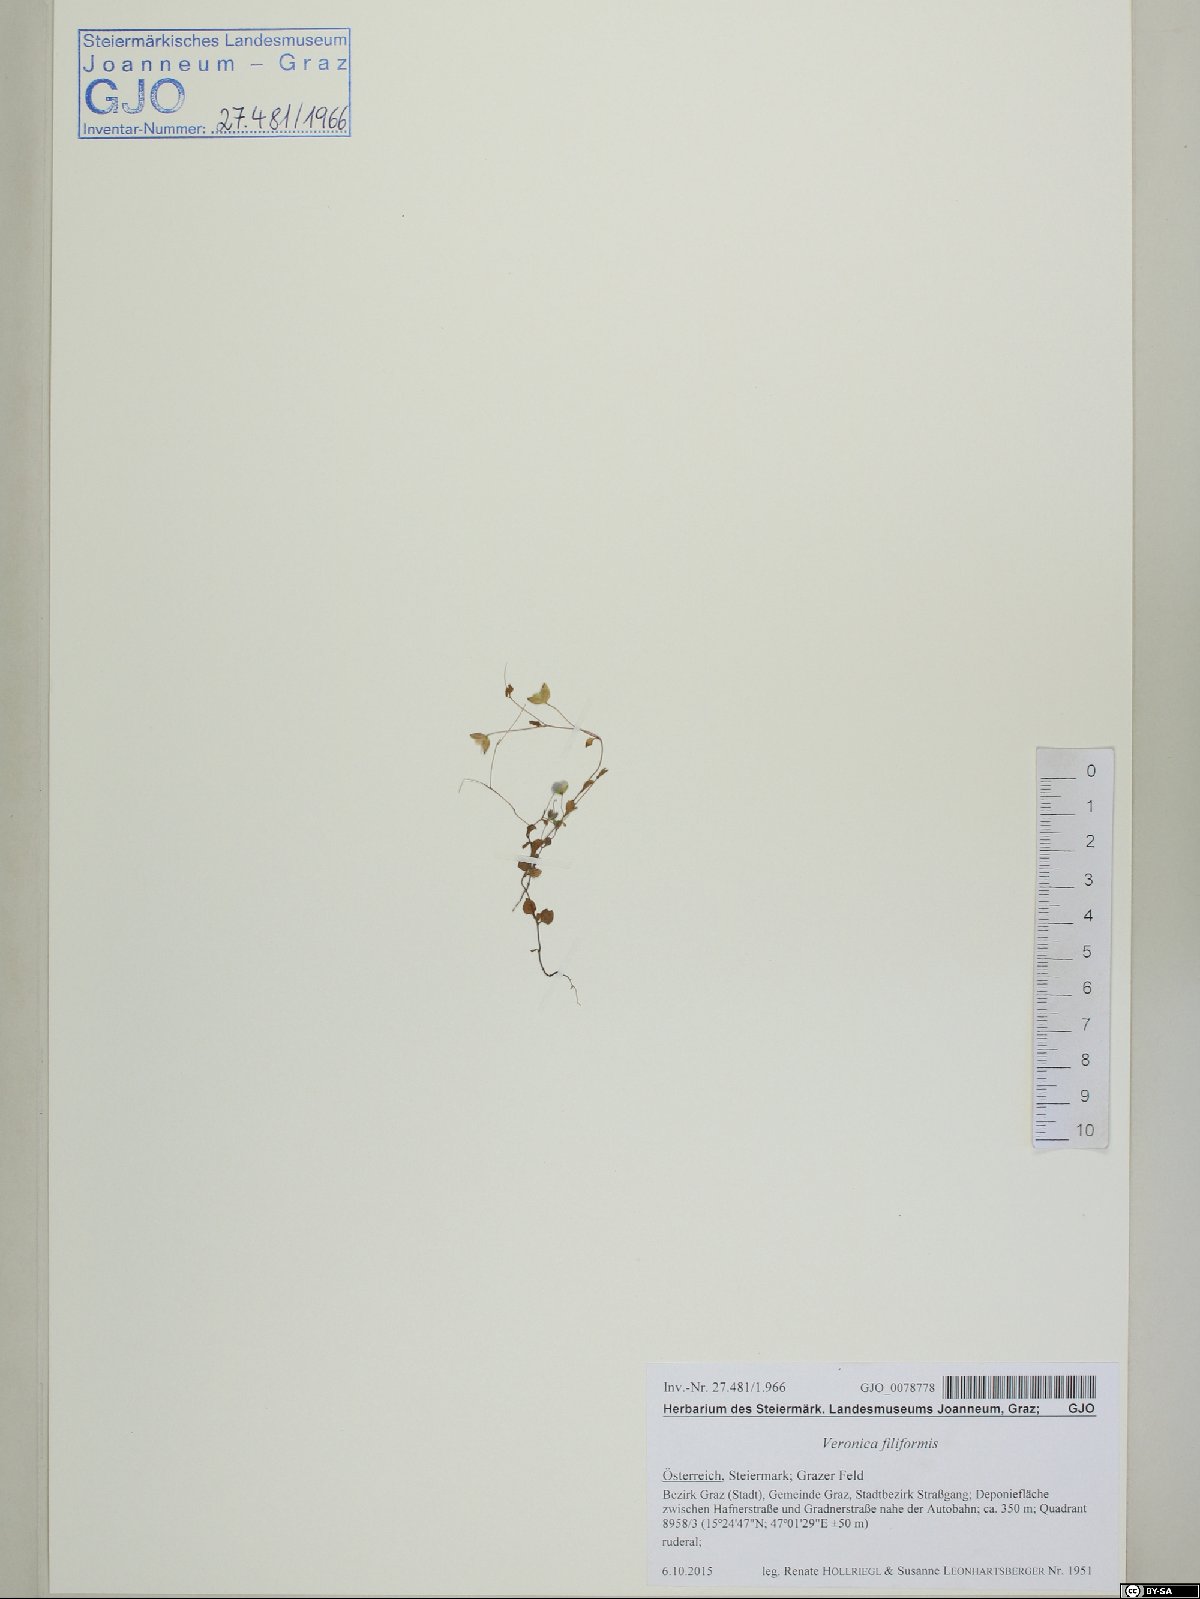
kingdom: Plantae
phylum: Tracheophyta
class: Magnoliopsida
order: Lamiales
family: Plantaginaceae
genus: Veronica
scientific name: Veronica filiformis
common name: Slender speedwell
